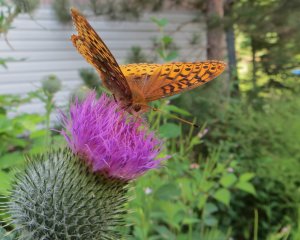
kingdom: Animalia
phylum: Arthropoda
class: Insecta
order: Lepidoptera
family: Nymphalidae
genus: Speyeria
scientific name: Speyeria cybele
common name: Great Spangled Fritillary
